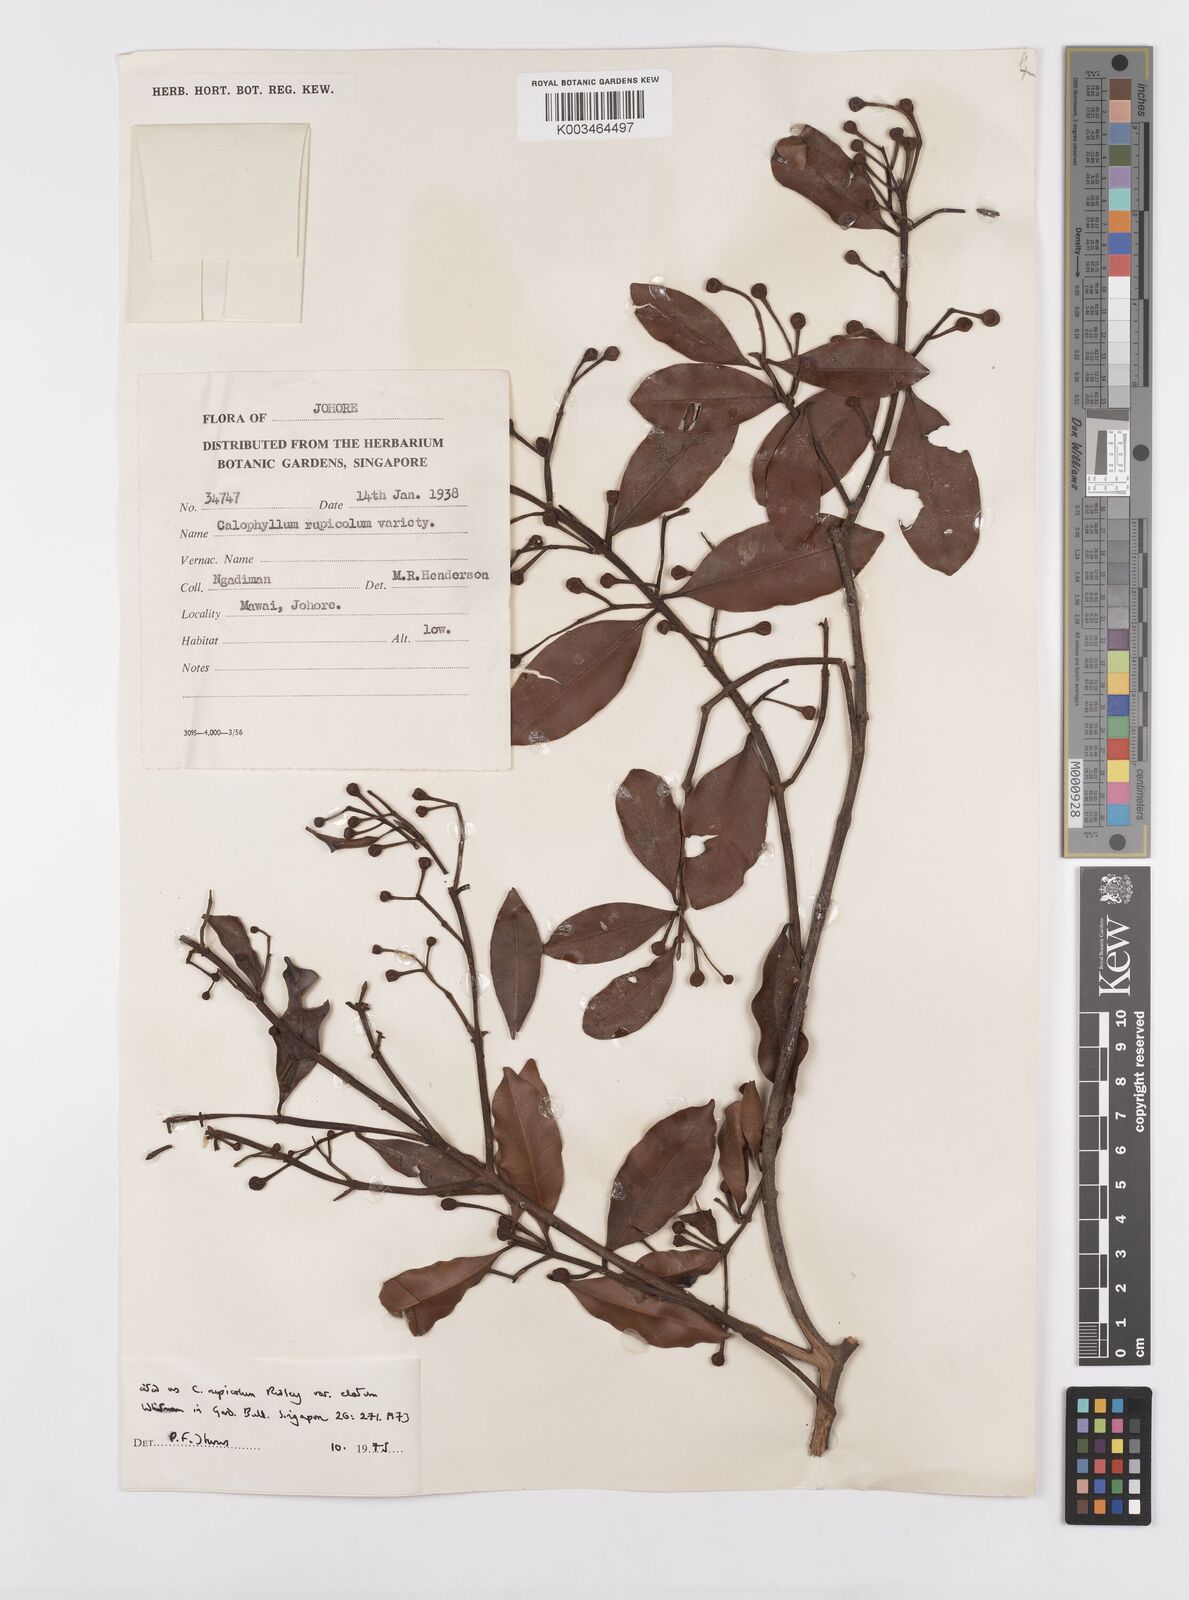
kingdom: Plantae
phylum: Tracheophyta
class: Magnoliopsida
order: Malpighiales
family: Calophyllaceae
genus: Calophyllum
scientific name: Calophyllum rupicola
